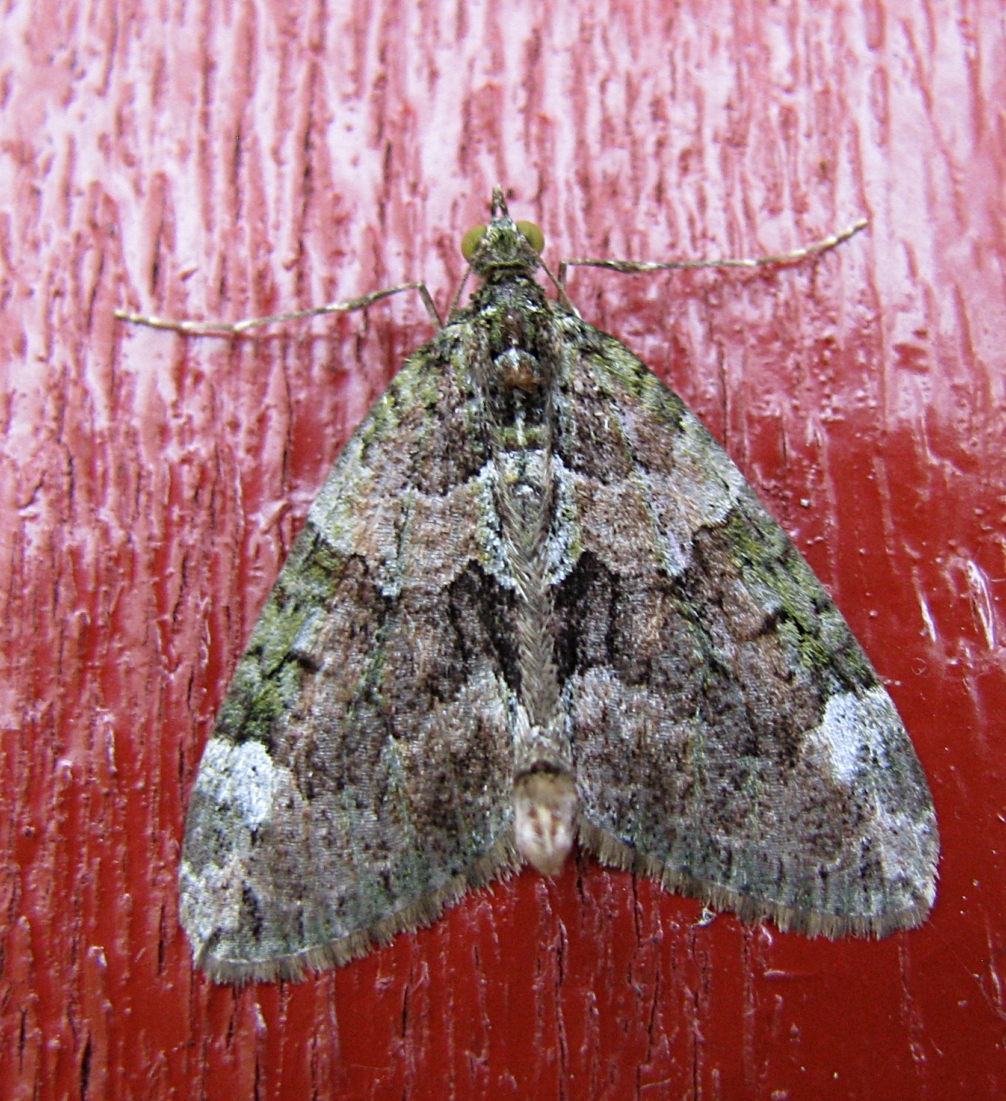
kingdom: Animalia
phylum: Arthropoda
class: Insecta
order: Lepidoptera
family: Geometridae
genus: Chloroclysta
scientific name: Chloroclysta siterata
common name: Red-green carpet
